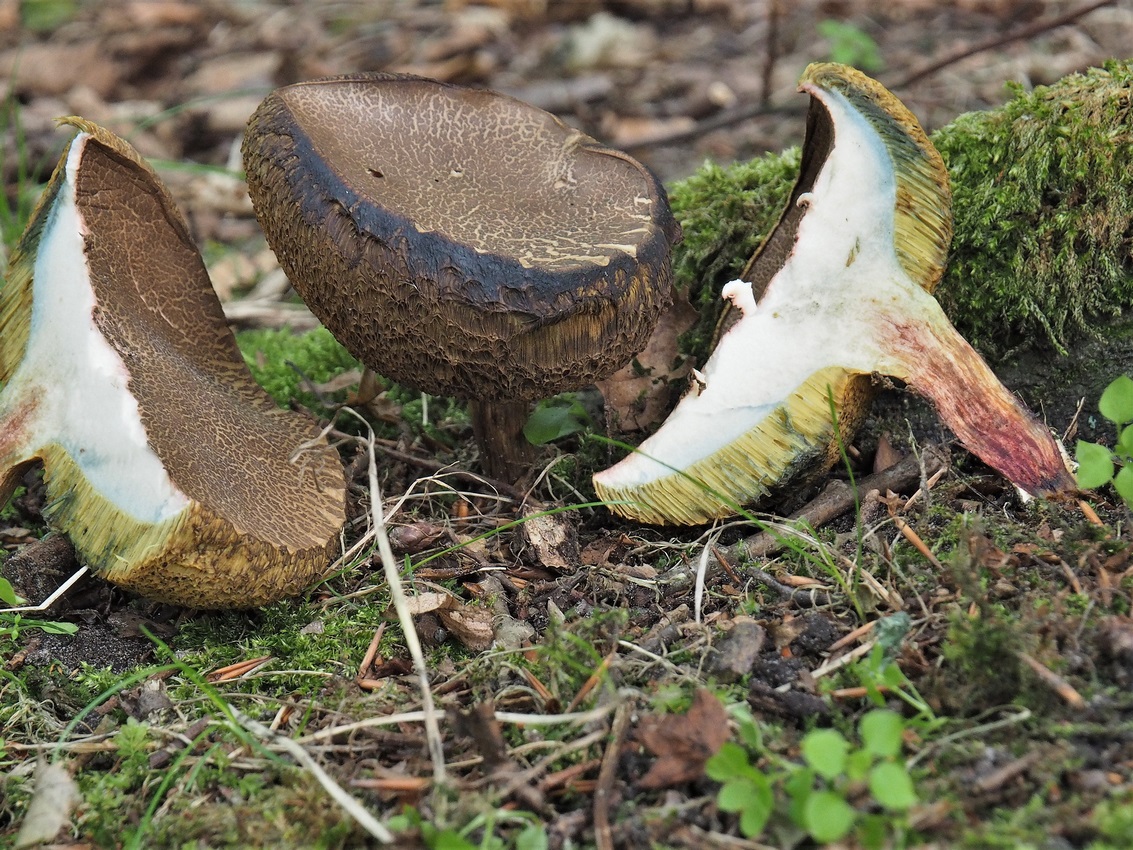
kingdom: Fungi
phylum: Basidiomycota
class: Agaricomycetes
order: Boletales
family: Boletaceae
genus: Xerocomellus
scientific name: Xerocomellus
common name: dværgrørhat
